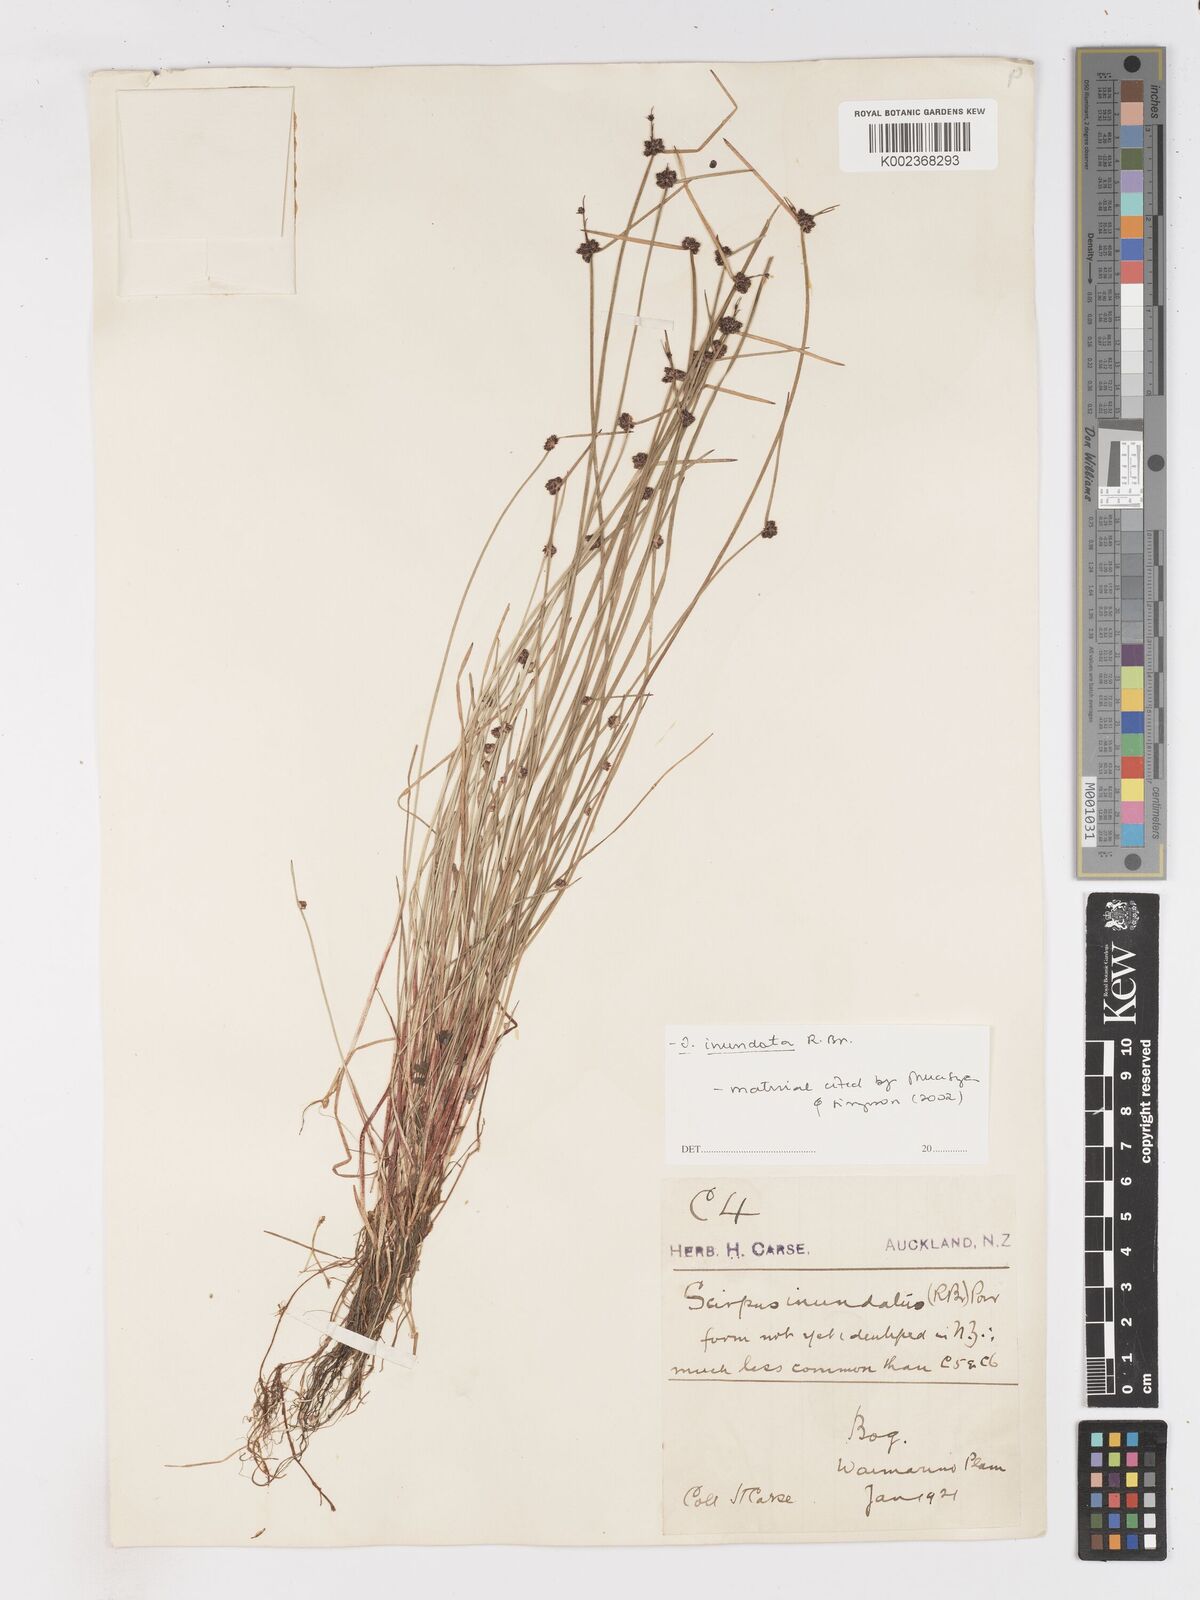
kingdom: Plantae
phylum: Tracheophyta
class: Liliopsida
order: Poales
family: Cyperaceae
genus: Isolepis
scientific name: Isolepis inundata
